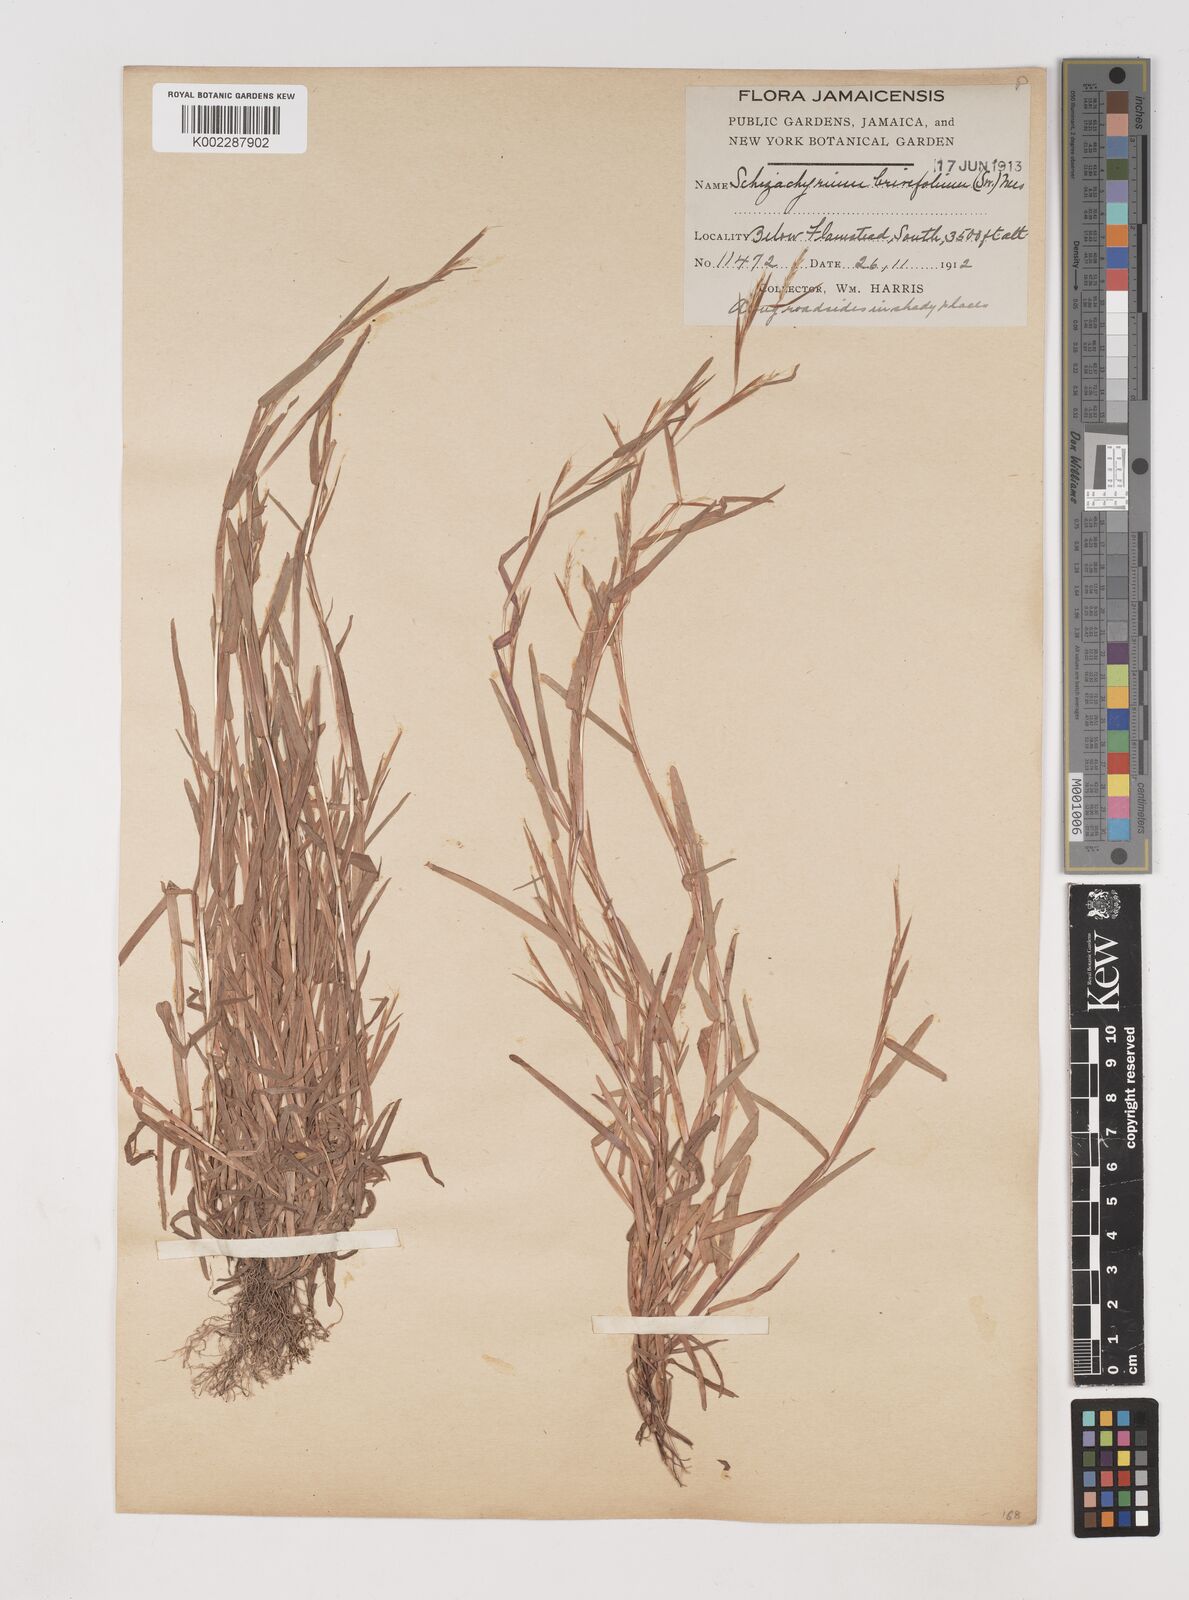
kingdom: Plantae
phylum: Tracheophyta
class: Liliopsida
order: Poales
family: Poaceae
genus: Schizachyrium
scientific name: Schizachyrium brevifolium
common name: Serillo dulce
